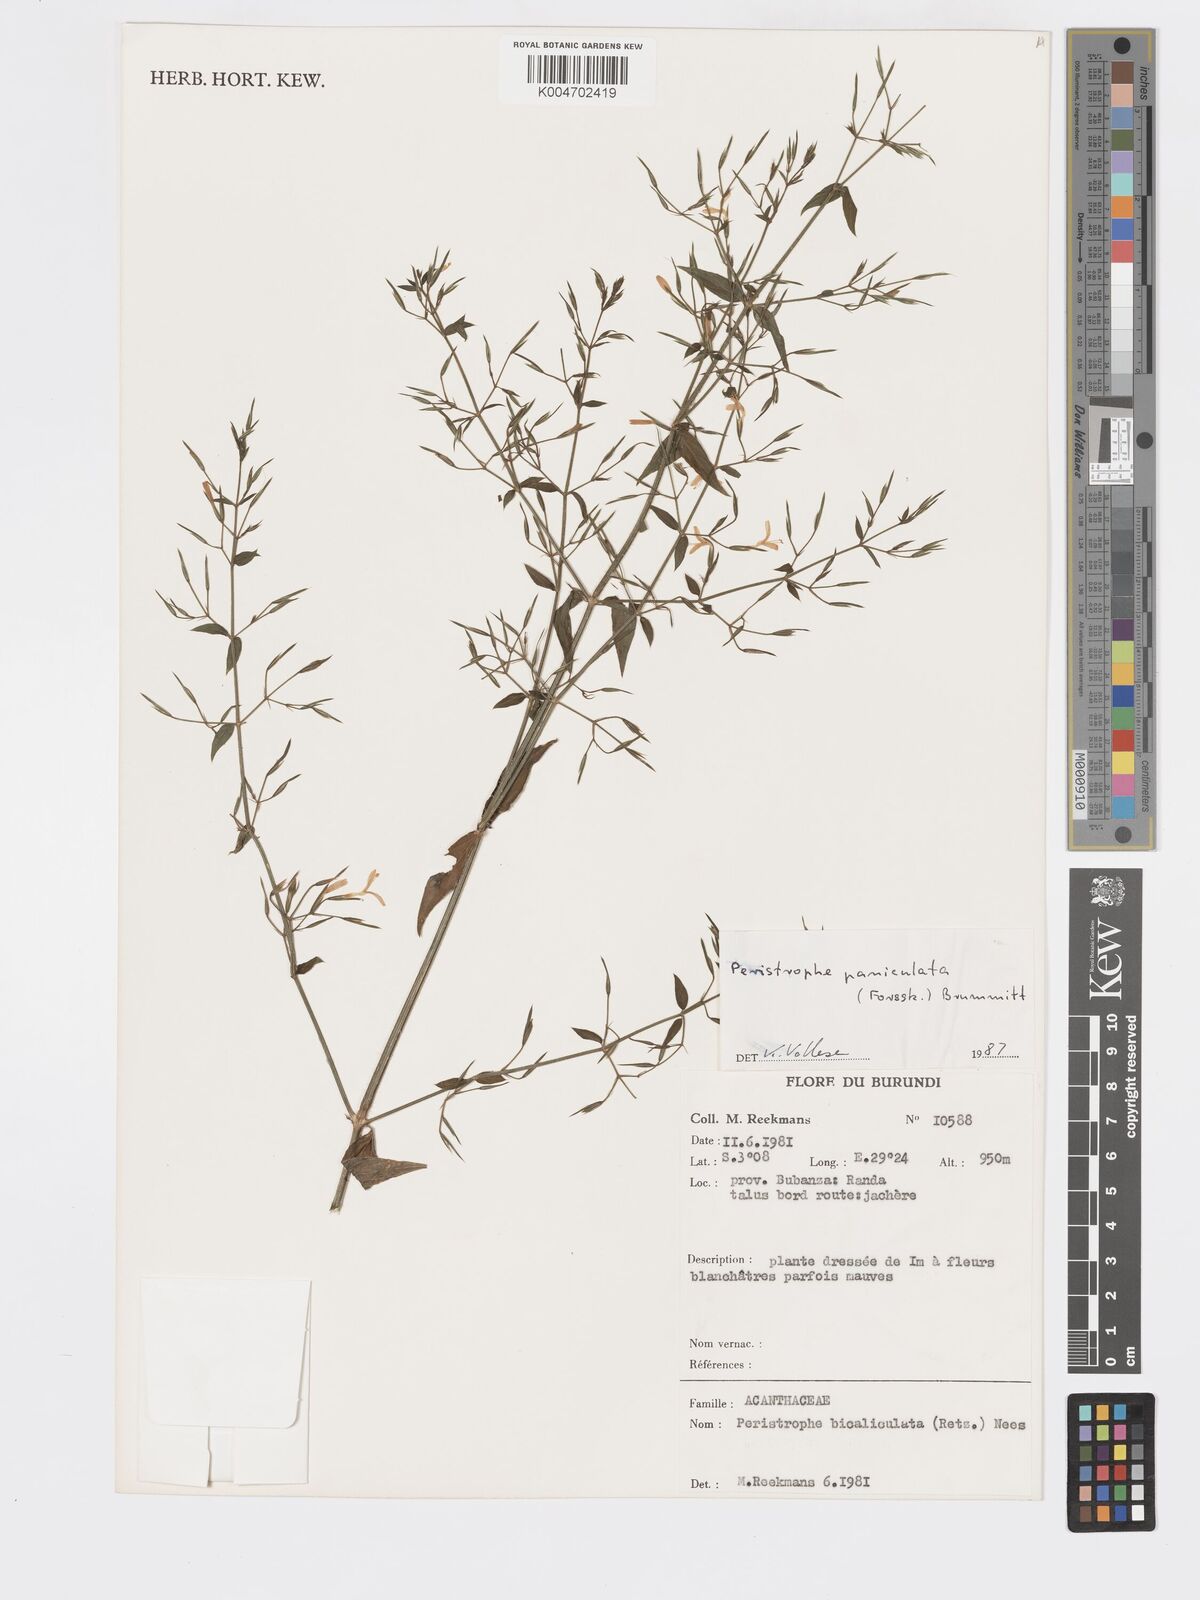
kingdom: Plantae
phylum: Tracheophyta
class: Magnoliopsida
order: Lamiales
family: Acanthaceae
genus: Dicliptera
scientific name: Dicliptera paniculata
